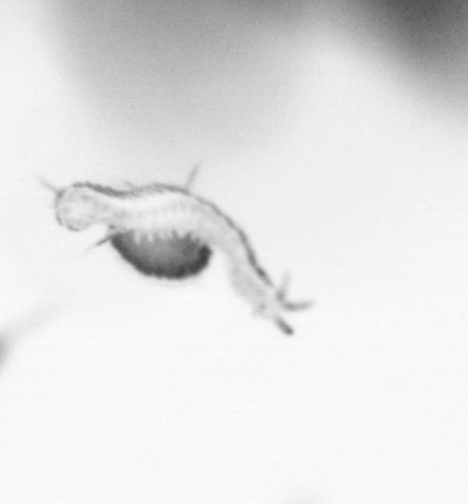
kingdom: Animalia
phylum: Annelida
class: Polychaeta
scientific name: Polychaeta
